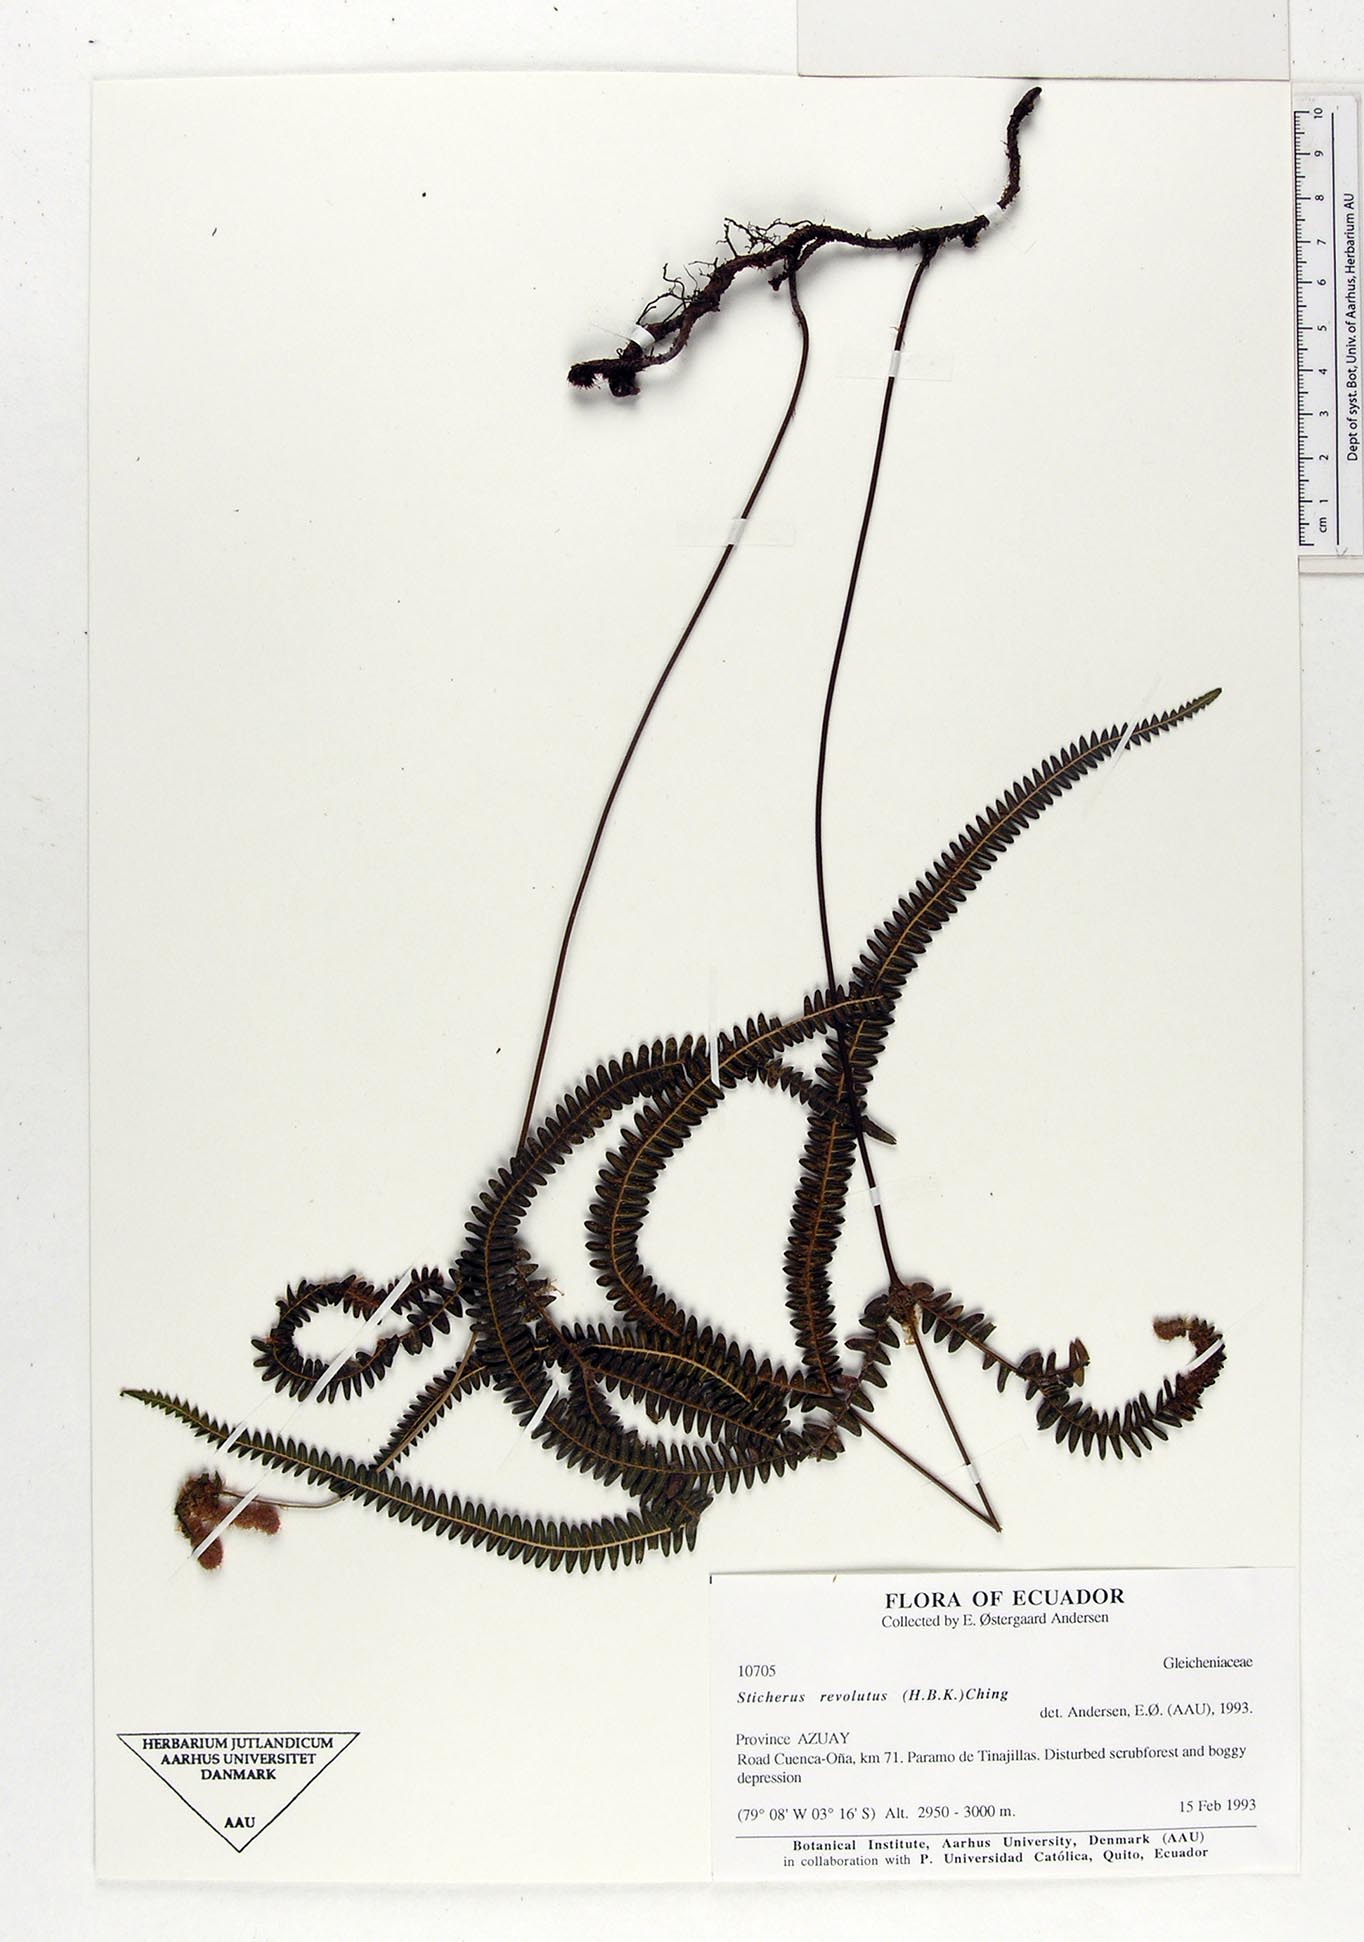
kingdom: Plantae
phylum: Tracheophyta
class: Polypodiopsida
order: Gleicheniales
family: Gleicheniaceae
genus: Sticherus
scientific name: Sticherus revolutus
